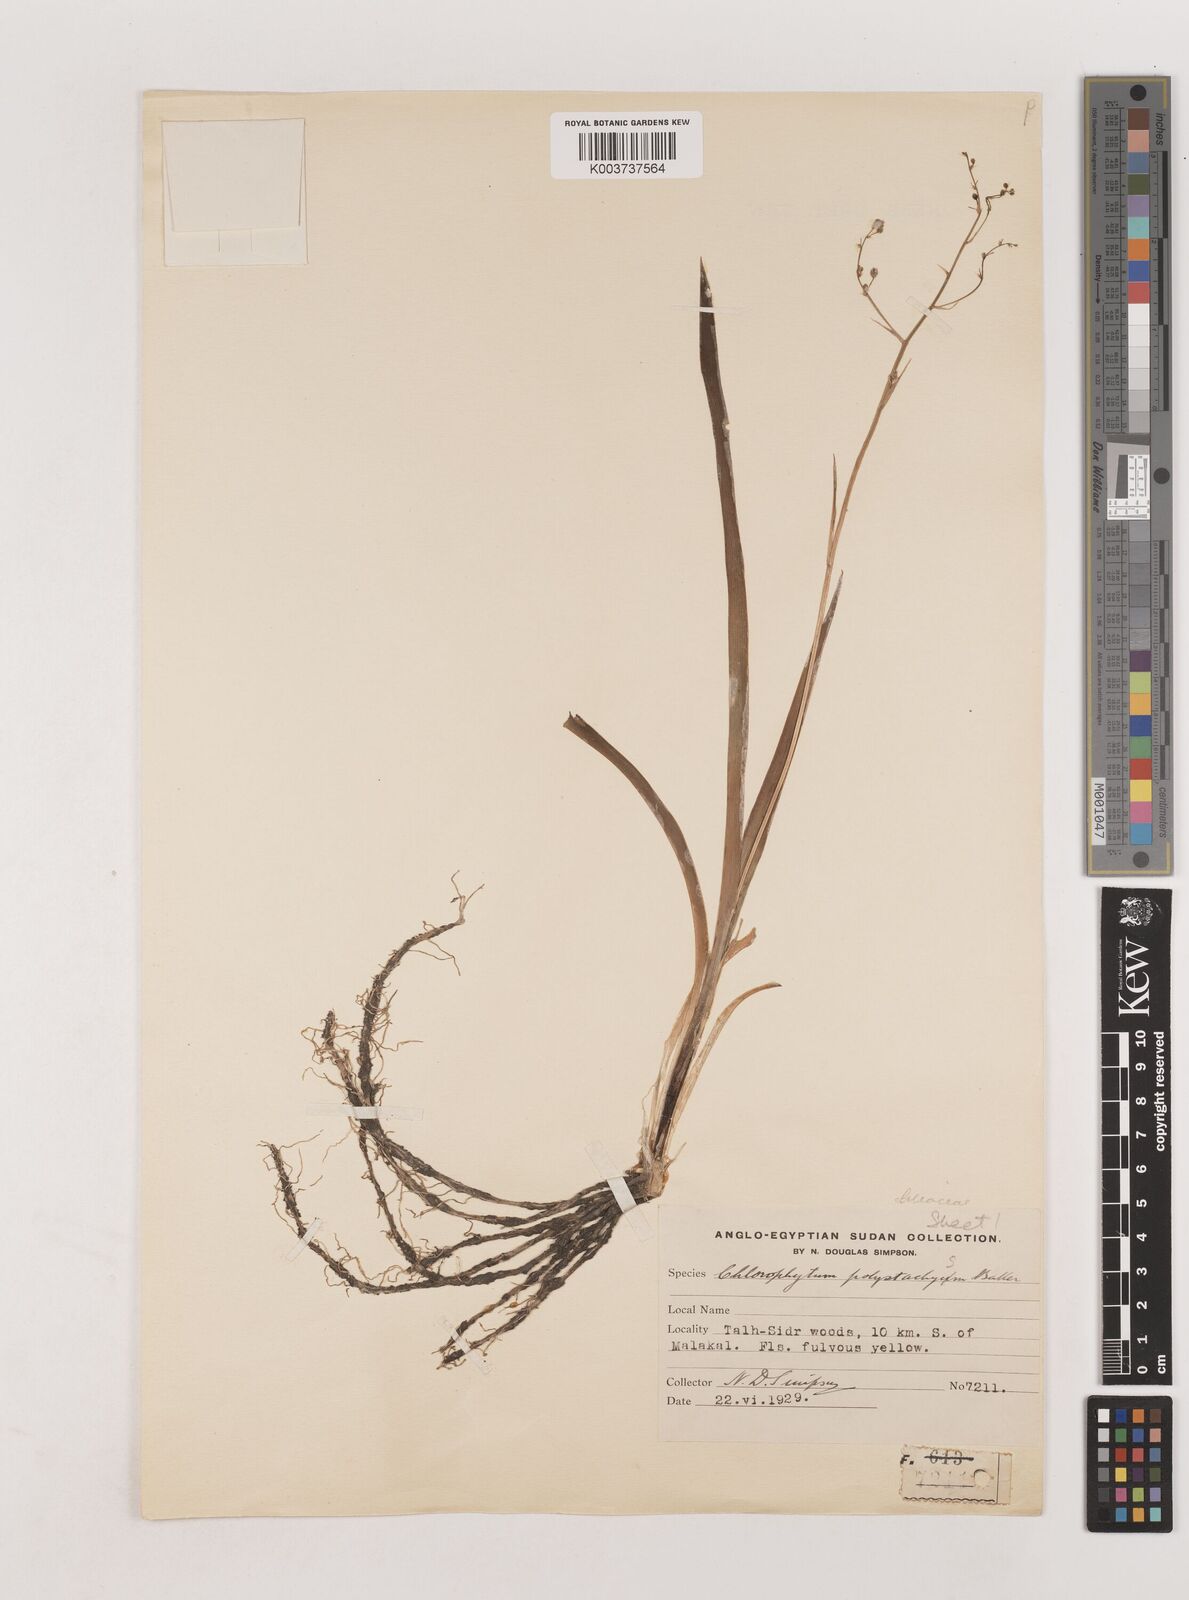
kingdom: Plantae
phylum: Tracheophyta
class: Liliopsida
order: Asparagales
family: Asparagaceae
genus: Chlorophytum
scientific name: Chlorophytum polystachys
